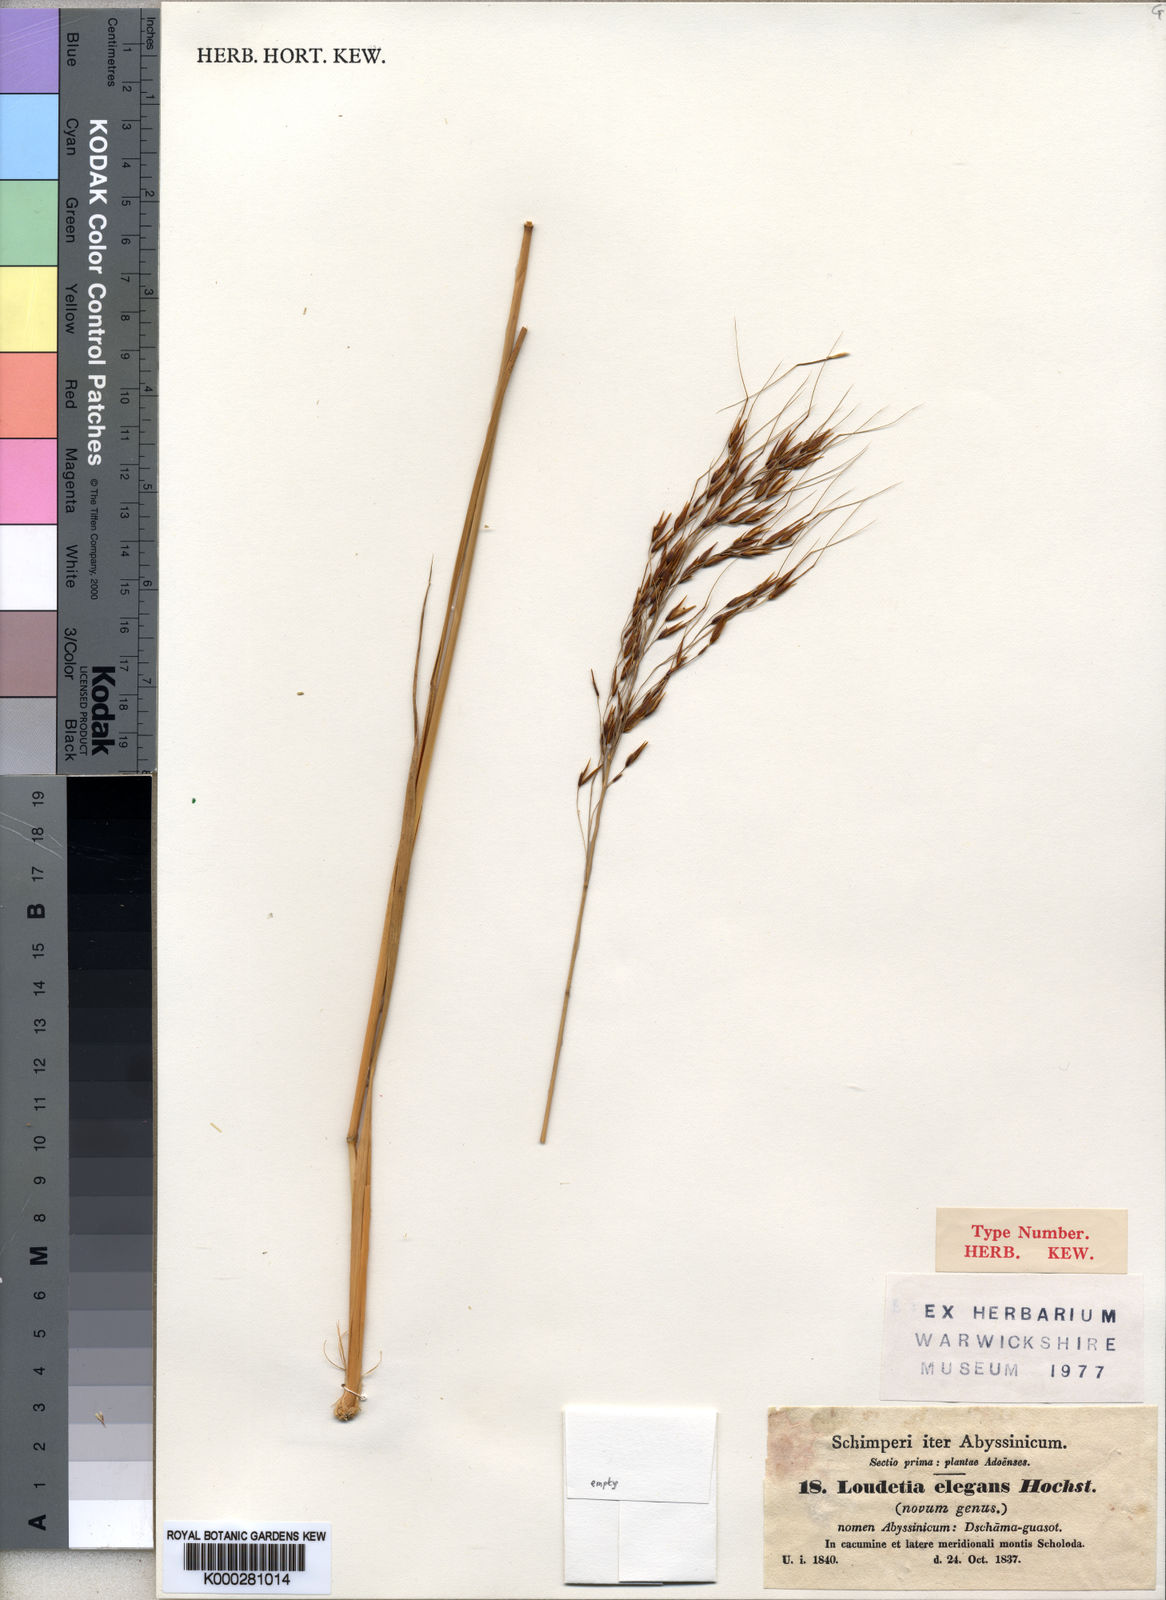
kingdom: Plantae
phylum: Tracheophyta
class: Liliopsida
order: Poales
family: Poaceae
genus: Loudetia
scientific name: Loudetia simplex
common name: Common russet grass
